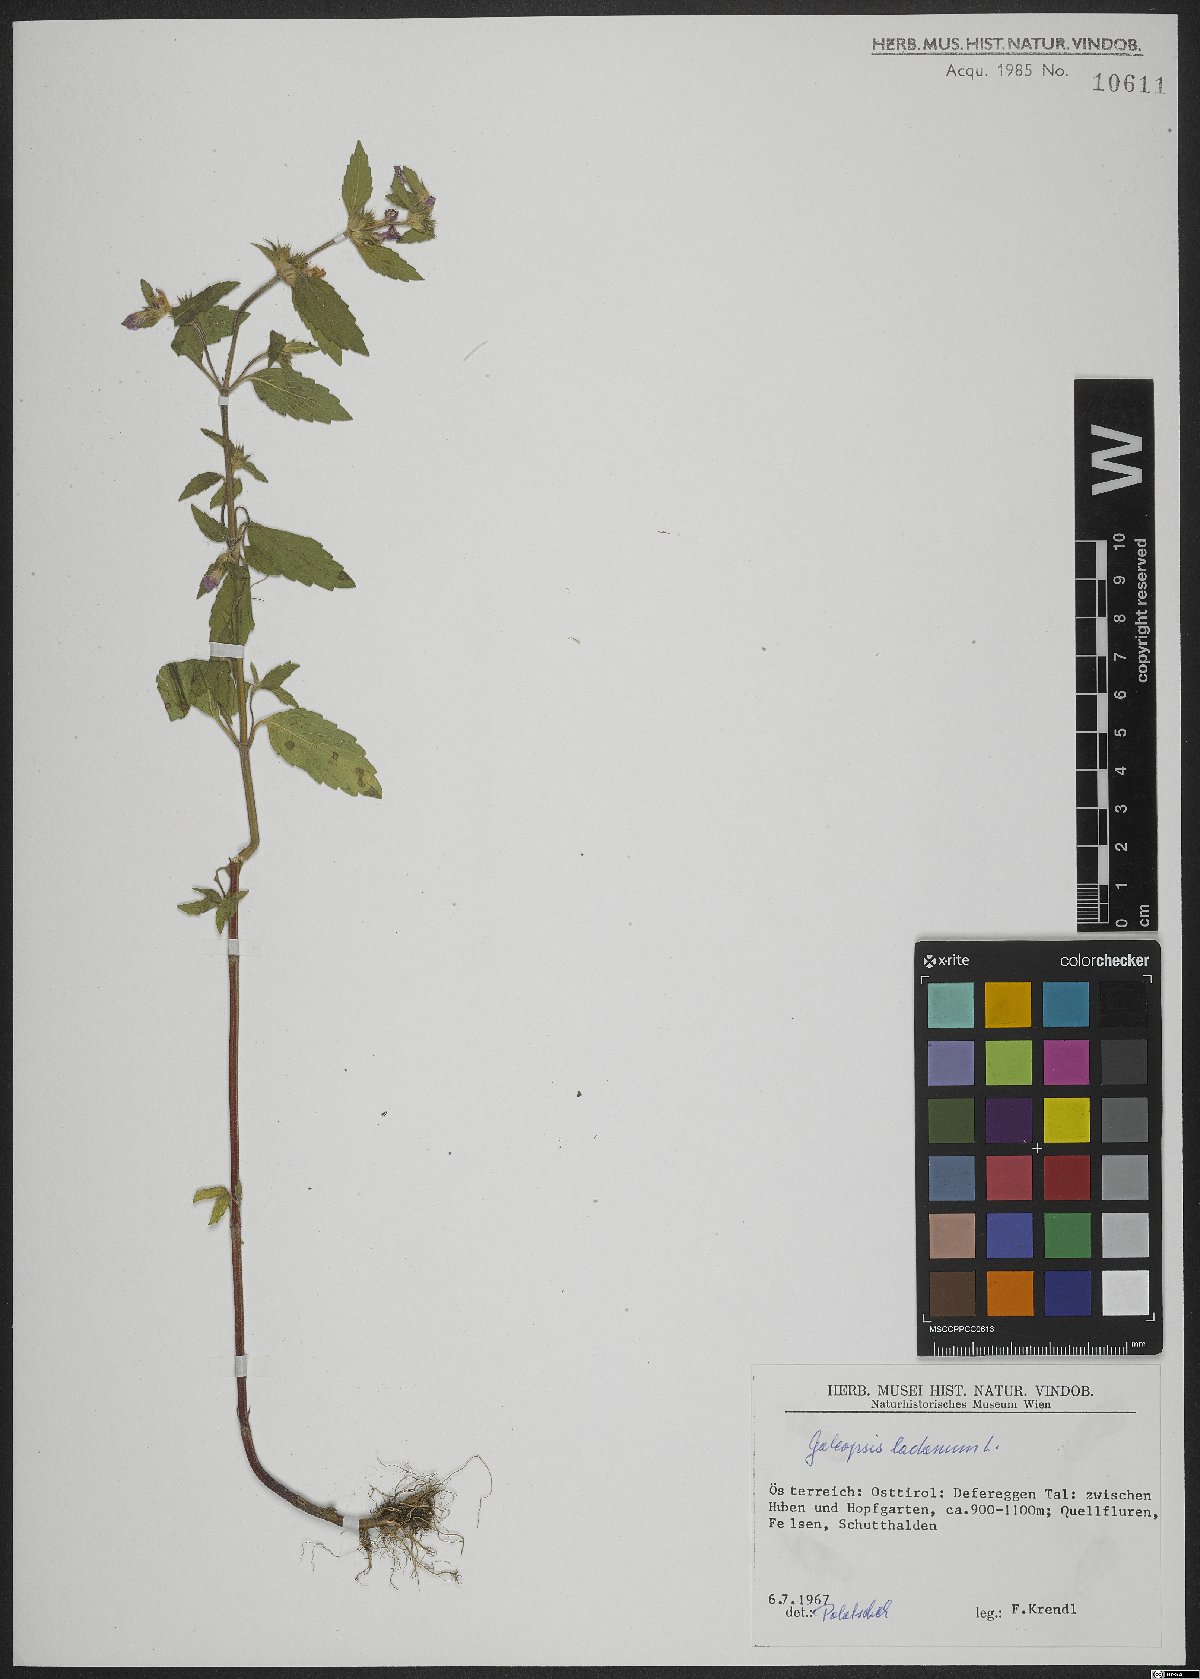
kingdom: Plantae
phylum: Tracheophyta
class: Magnoliopsida
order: Lamiales
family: Lamiaceae
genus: Galeopsis
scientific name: Galeopsis ladanum
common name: Broad-leaved hemp-nettle
